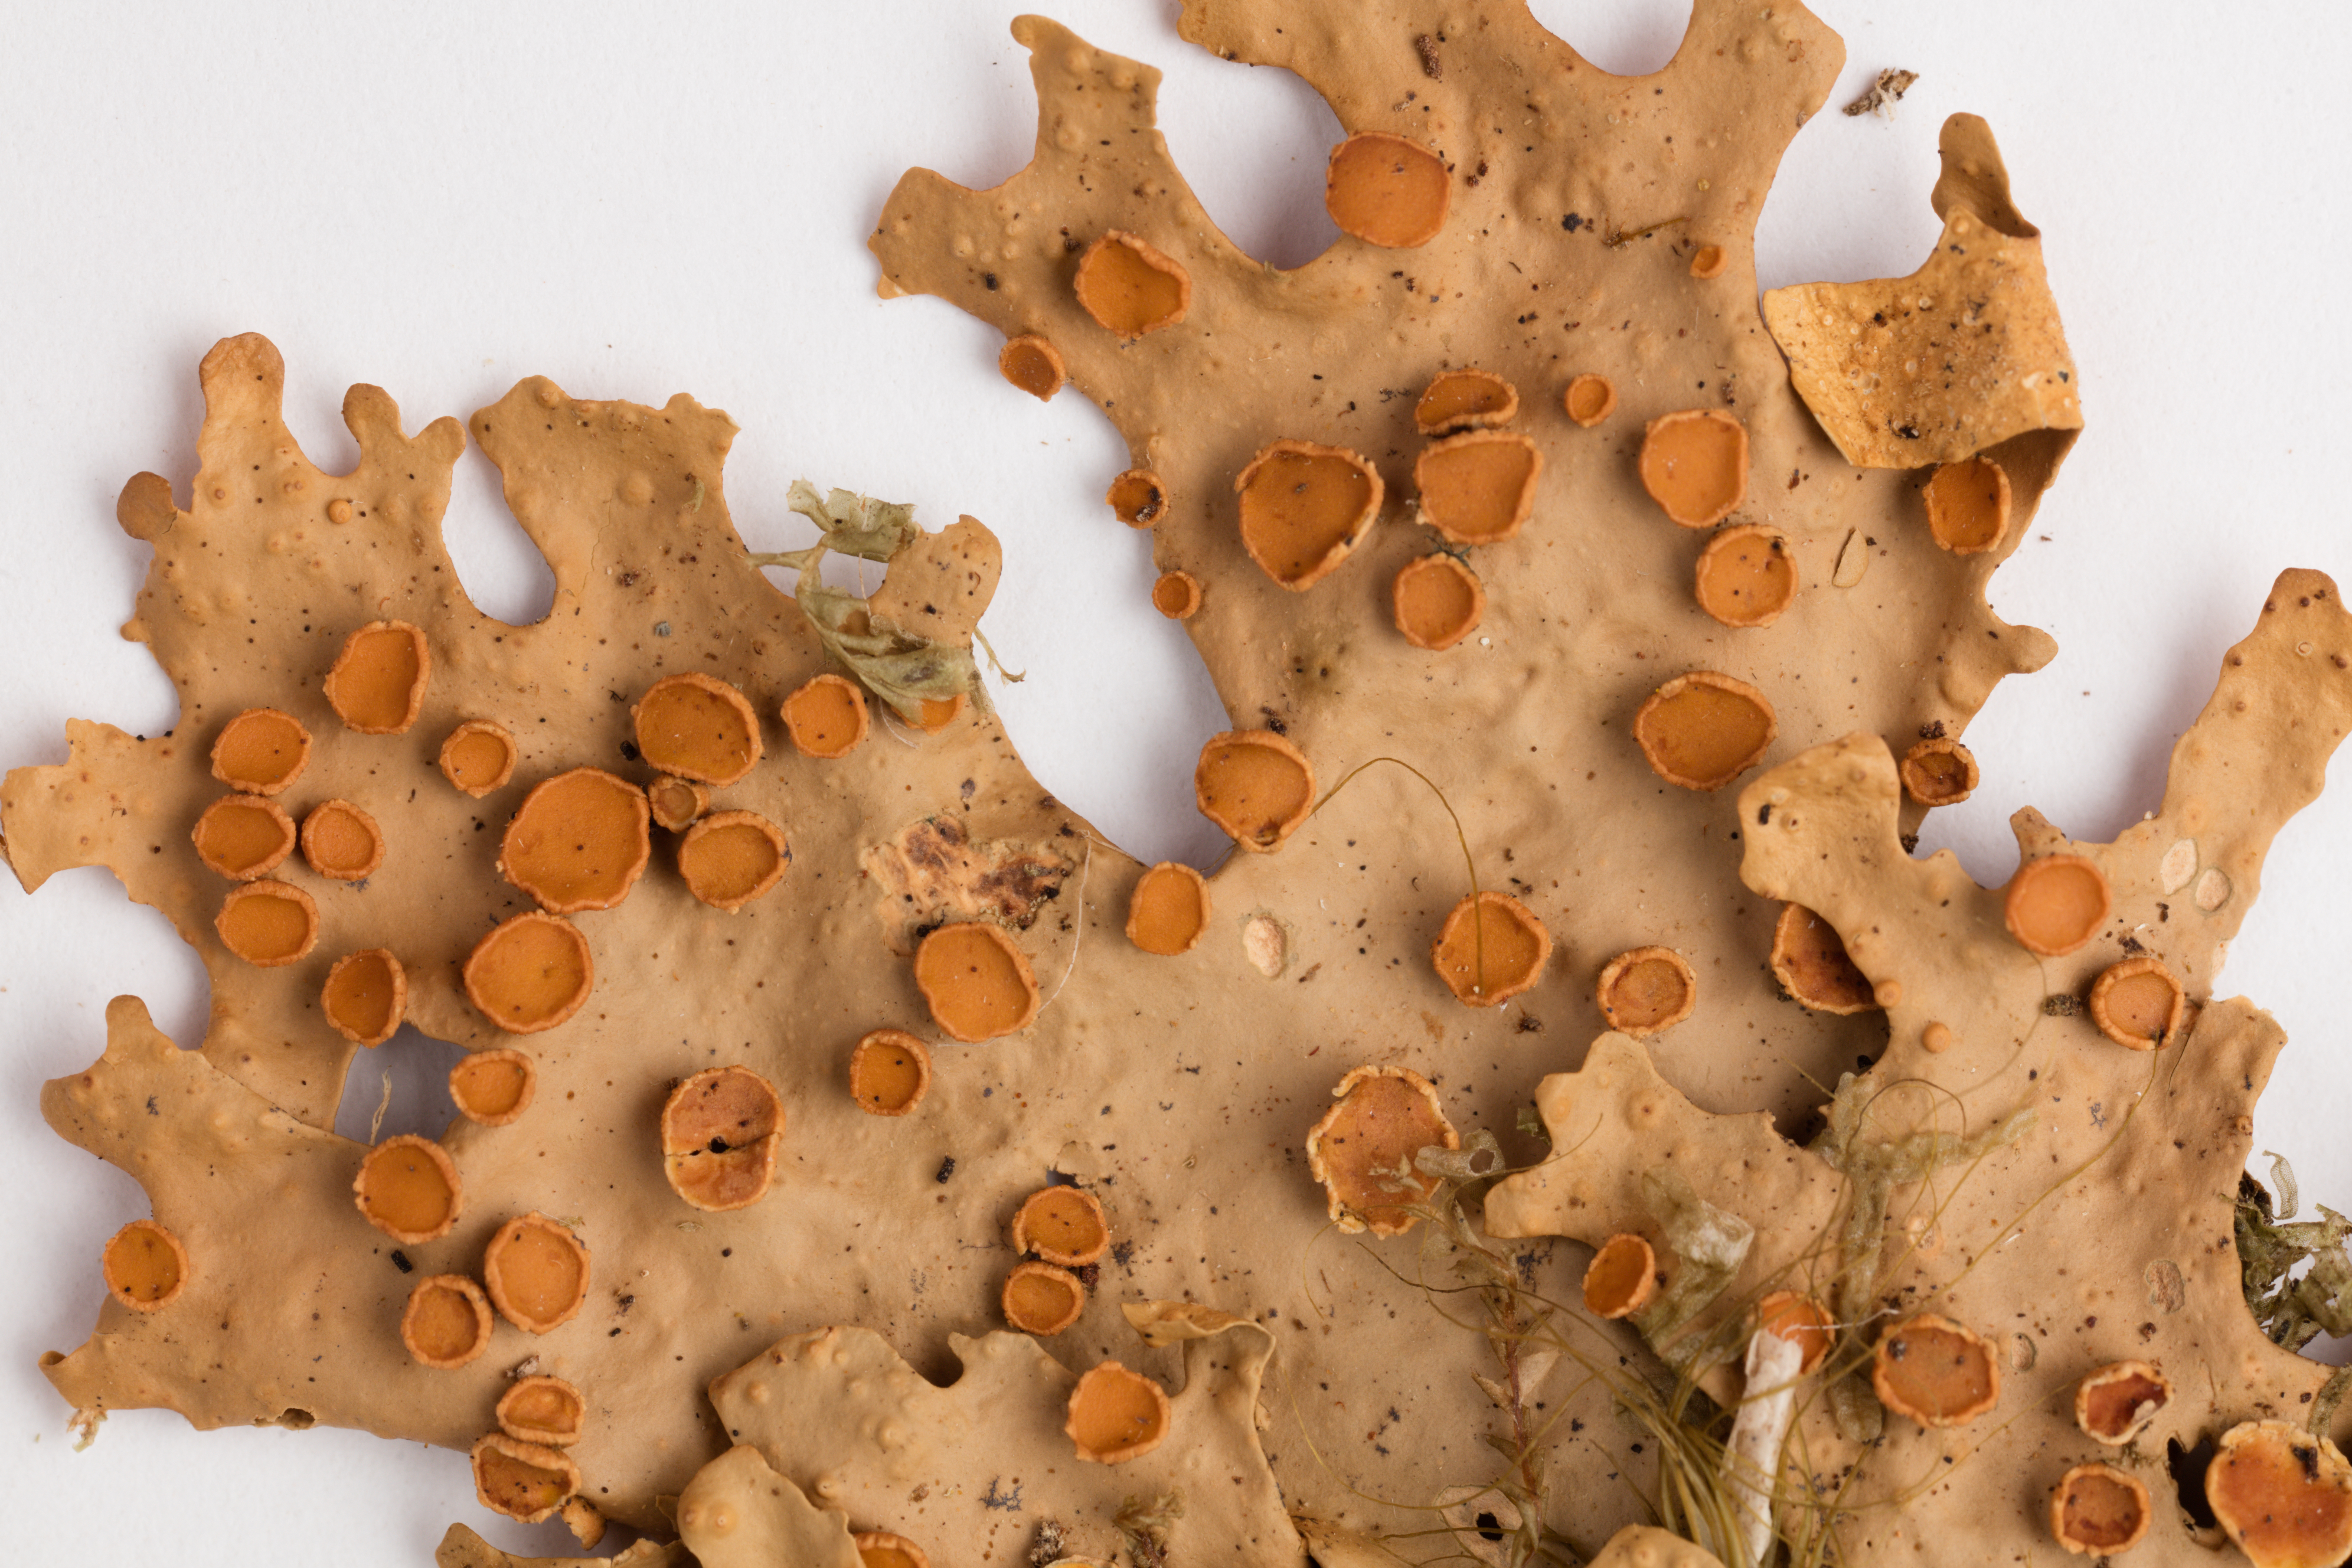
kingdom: Fungi
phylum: Ascomycota
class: Lecanoromycetes
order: Peltigerales
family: Lobariaceae
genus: Sticta
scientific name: Sticta subcaperata
